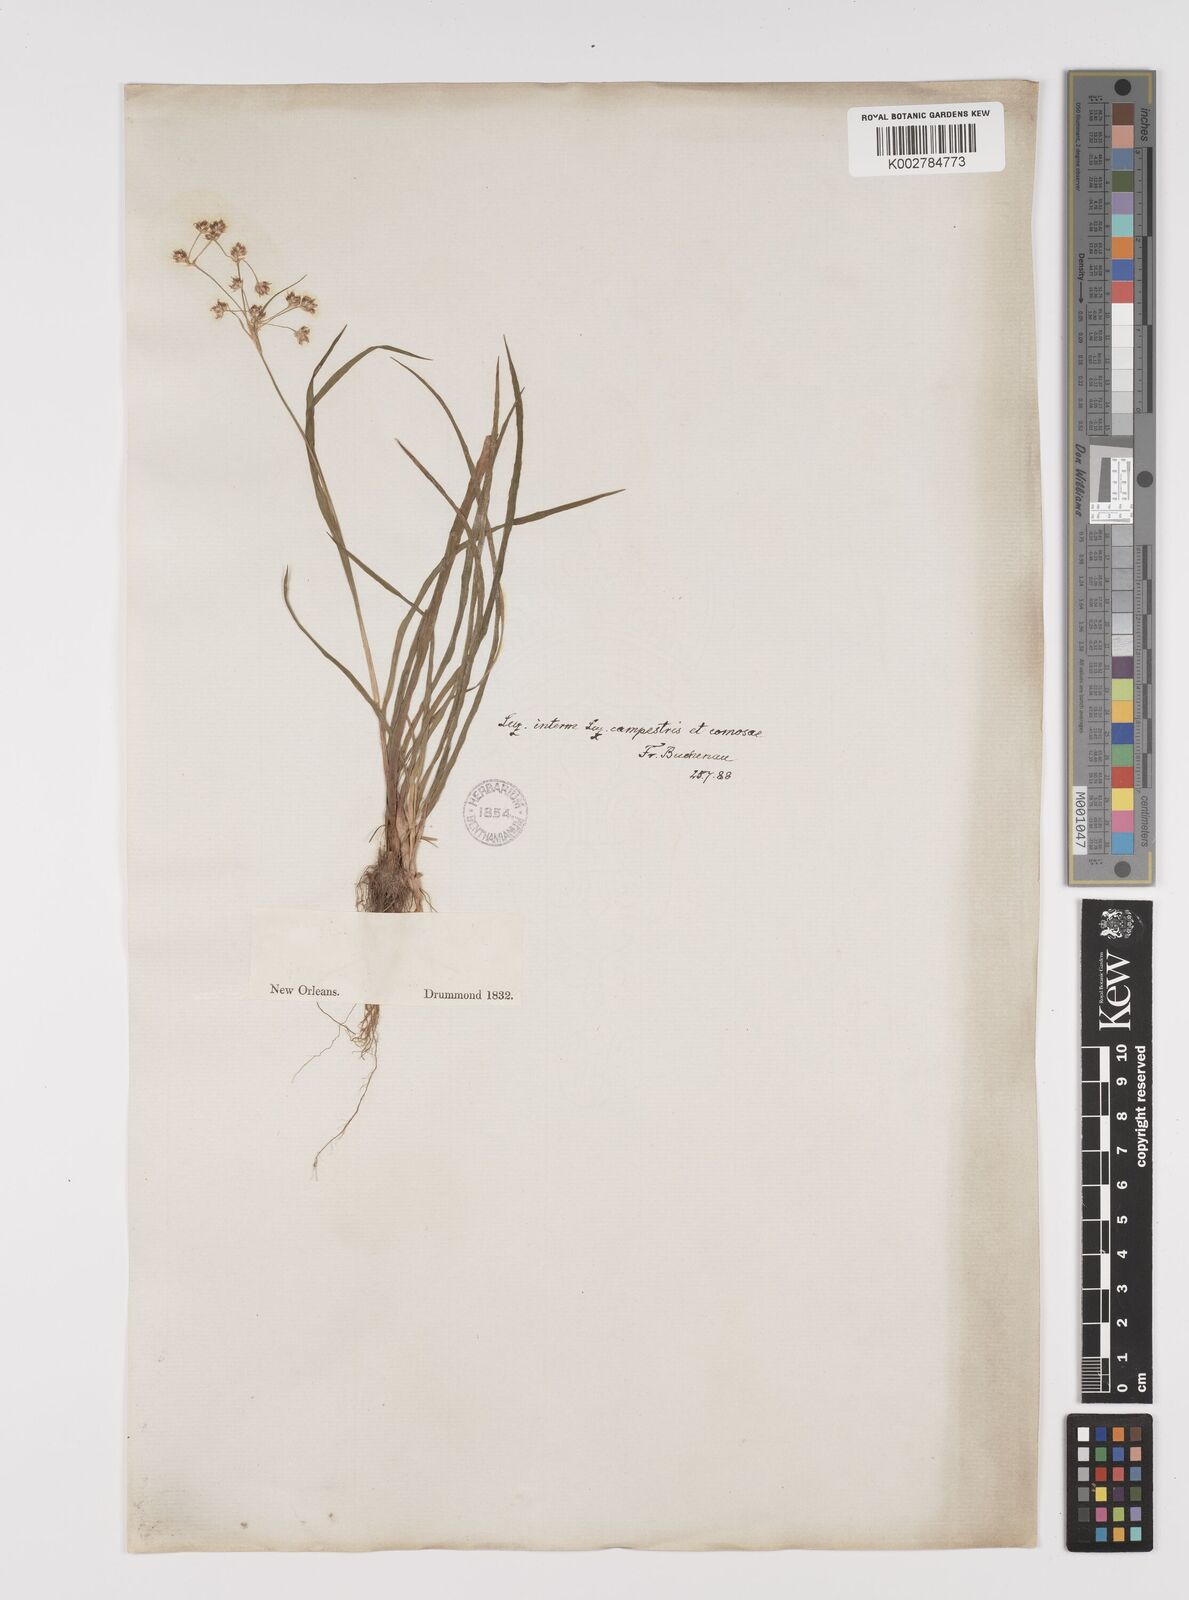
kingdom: Plantae
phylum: Tracheophyta
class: Liliopsida
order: Poales
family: Juncaceae
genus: Luzula
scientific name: Luzula comosa
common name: Pacific woodrush
